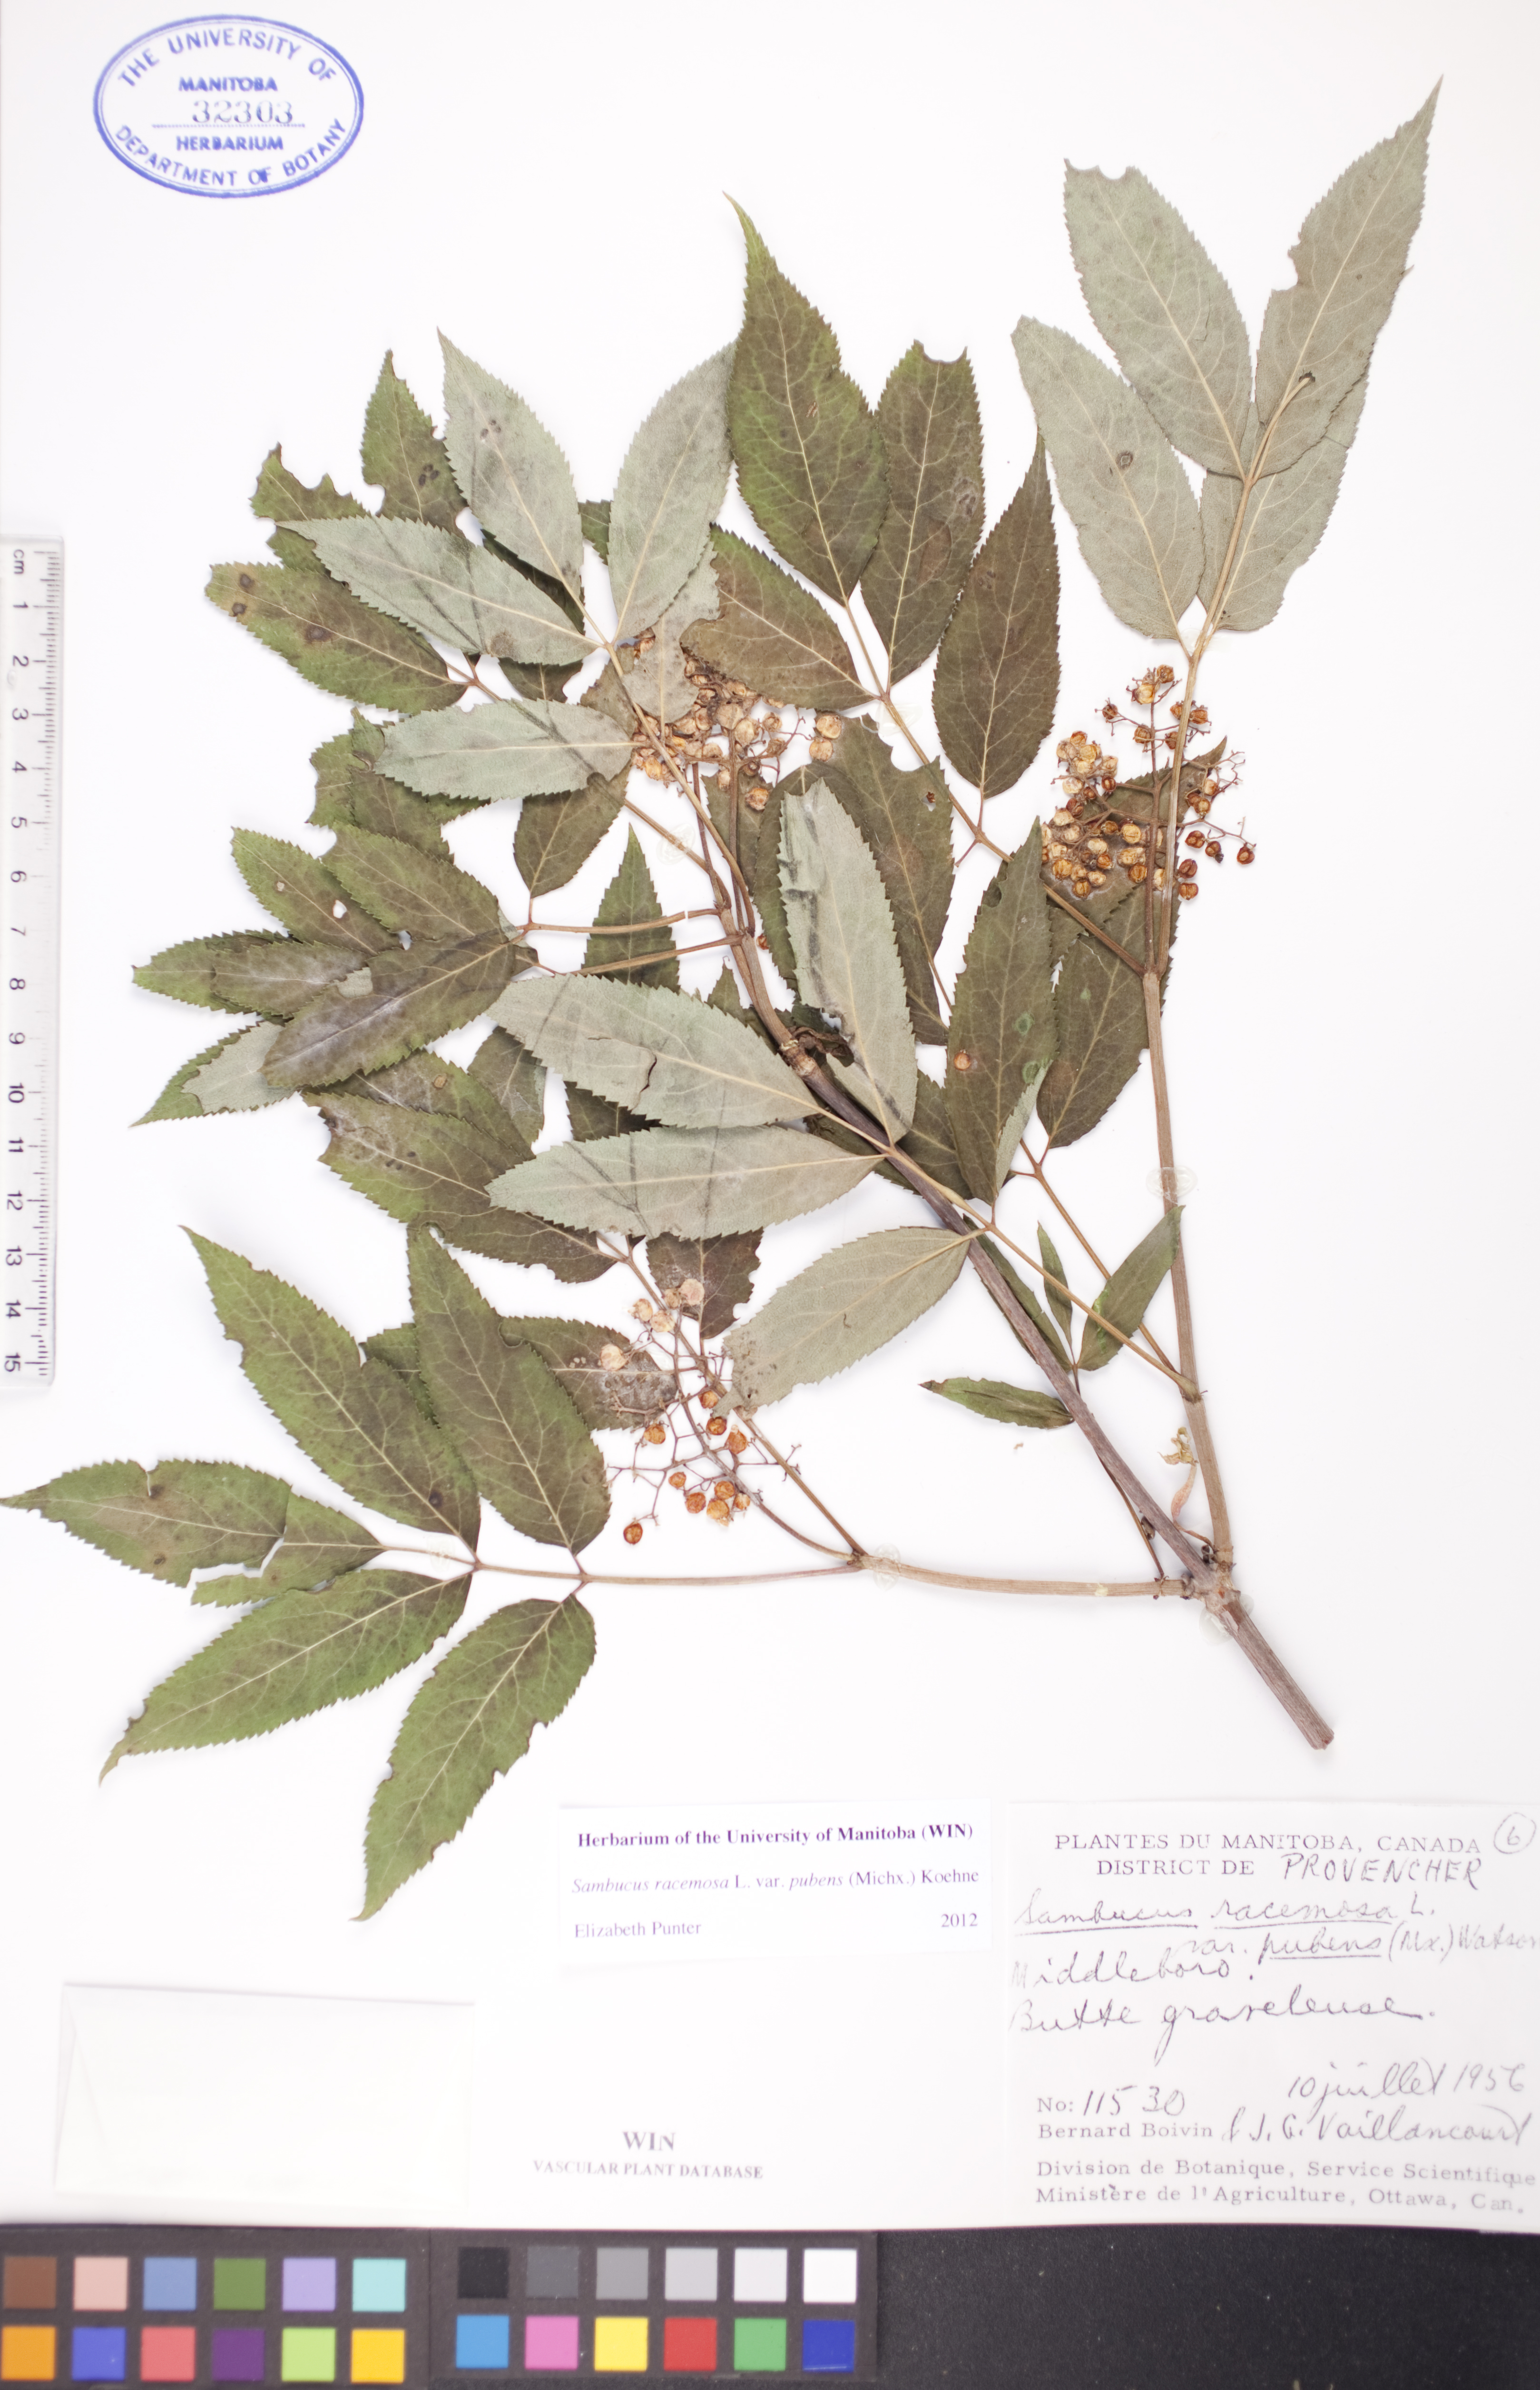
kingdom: Plantae
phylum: Tracheophyta
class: Magnoliopsida
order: Dipsacales
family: Viburnaceae
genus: Sambucus
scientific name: Sambucus racemosa
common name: Red-berried elder
